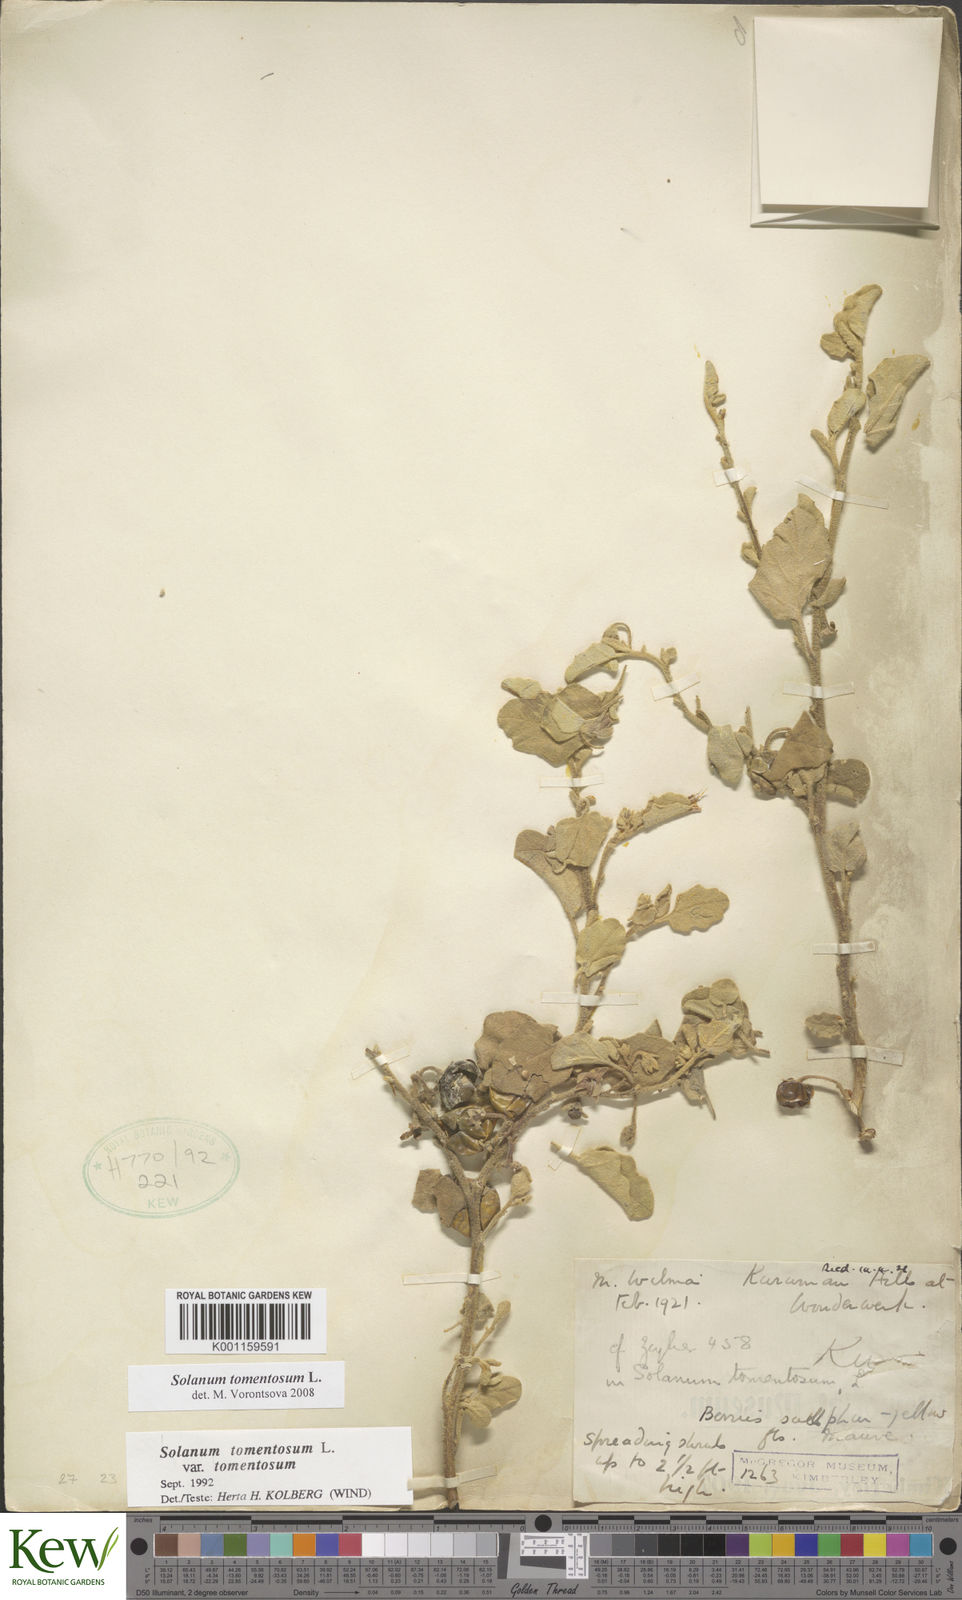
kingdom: Plantae
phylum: Tracheophyta
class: Magnoliopsida
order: Solanales
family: Solanaceae
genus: Solanum
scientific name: Solanum tomentosum
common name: Wild aubergine
